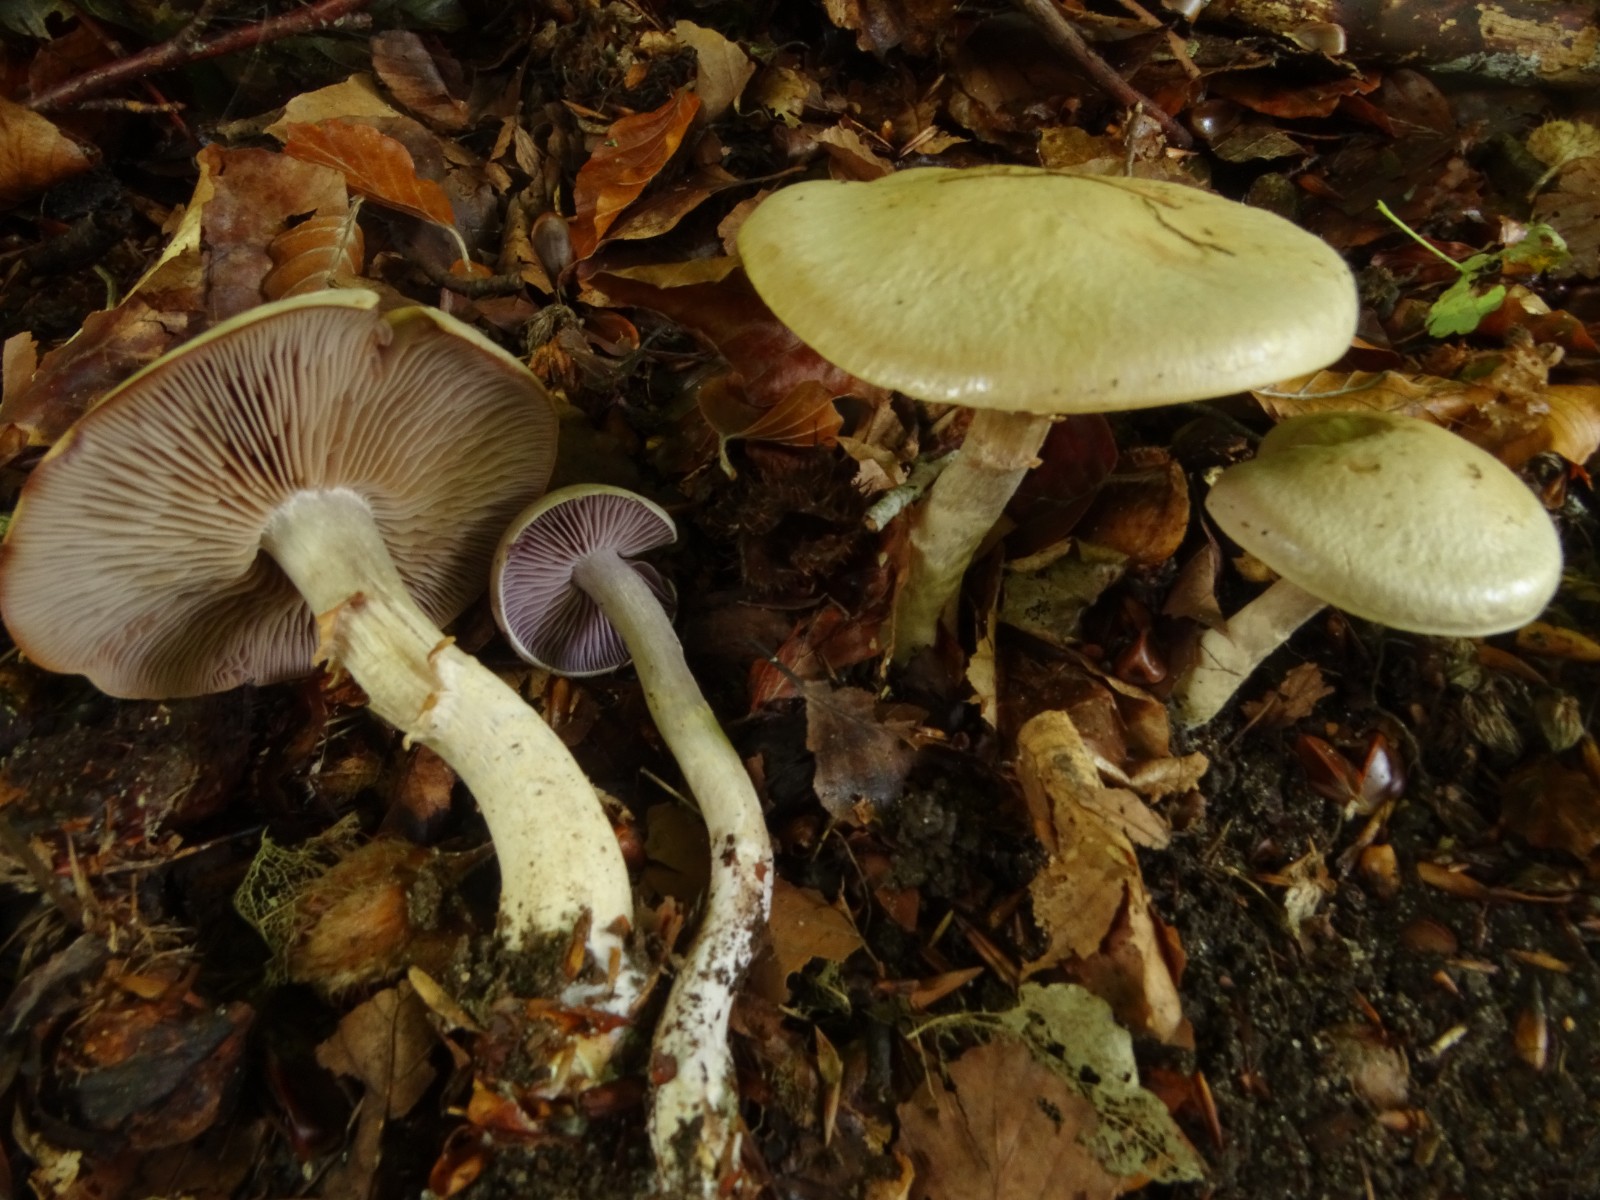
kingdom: Fungi
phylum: Basidiomycota
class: Agaricomycetes
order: Agaricales
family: Cortinariaceae
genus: Cortinarius
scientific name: Cortinarius
